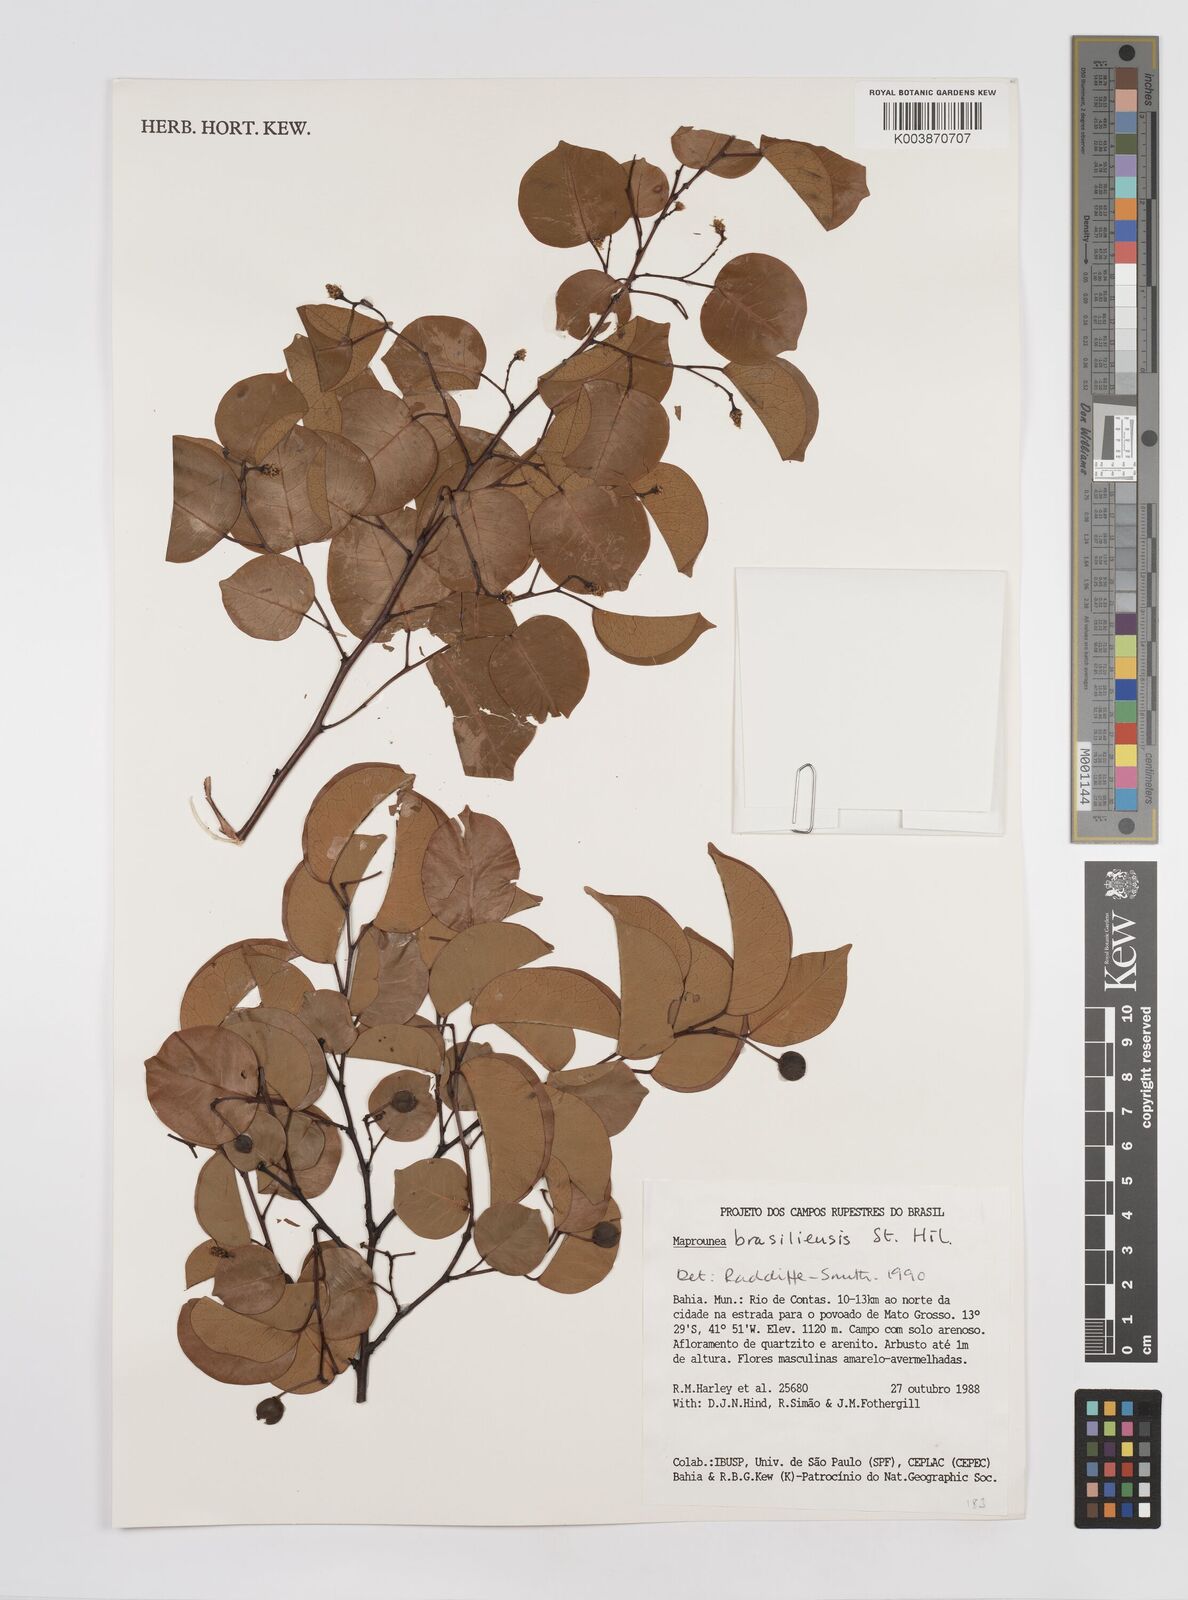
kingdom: Plantae
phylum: Tracheophyta
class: Magnoliopsida
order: Malpighiales
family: Euphorbiaceae
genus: Maprounea
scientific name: Maprounea brasiliensis
